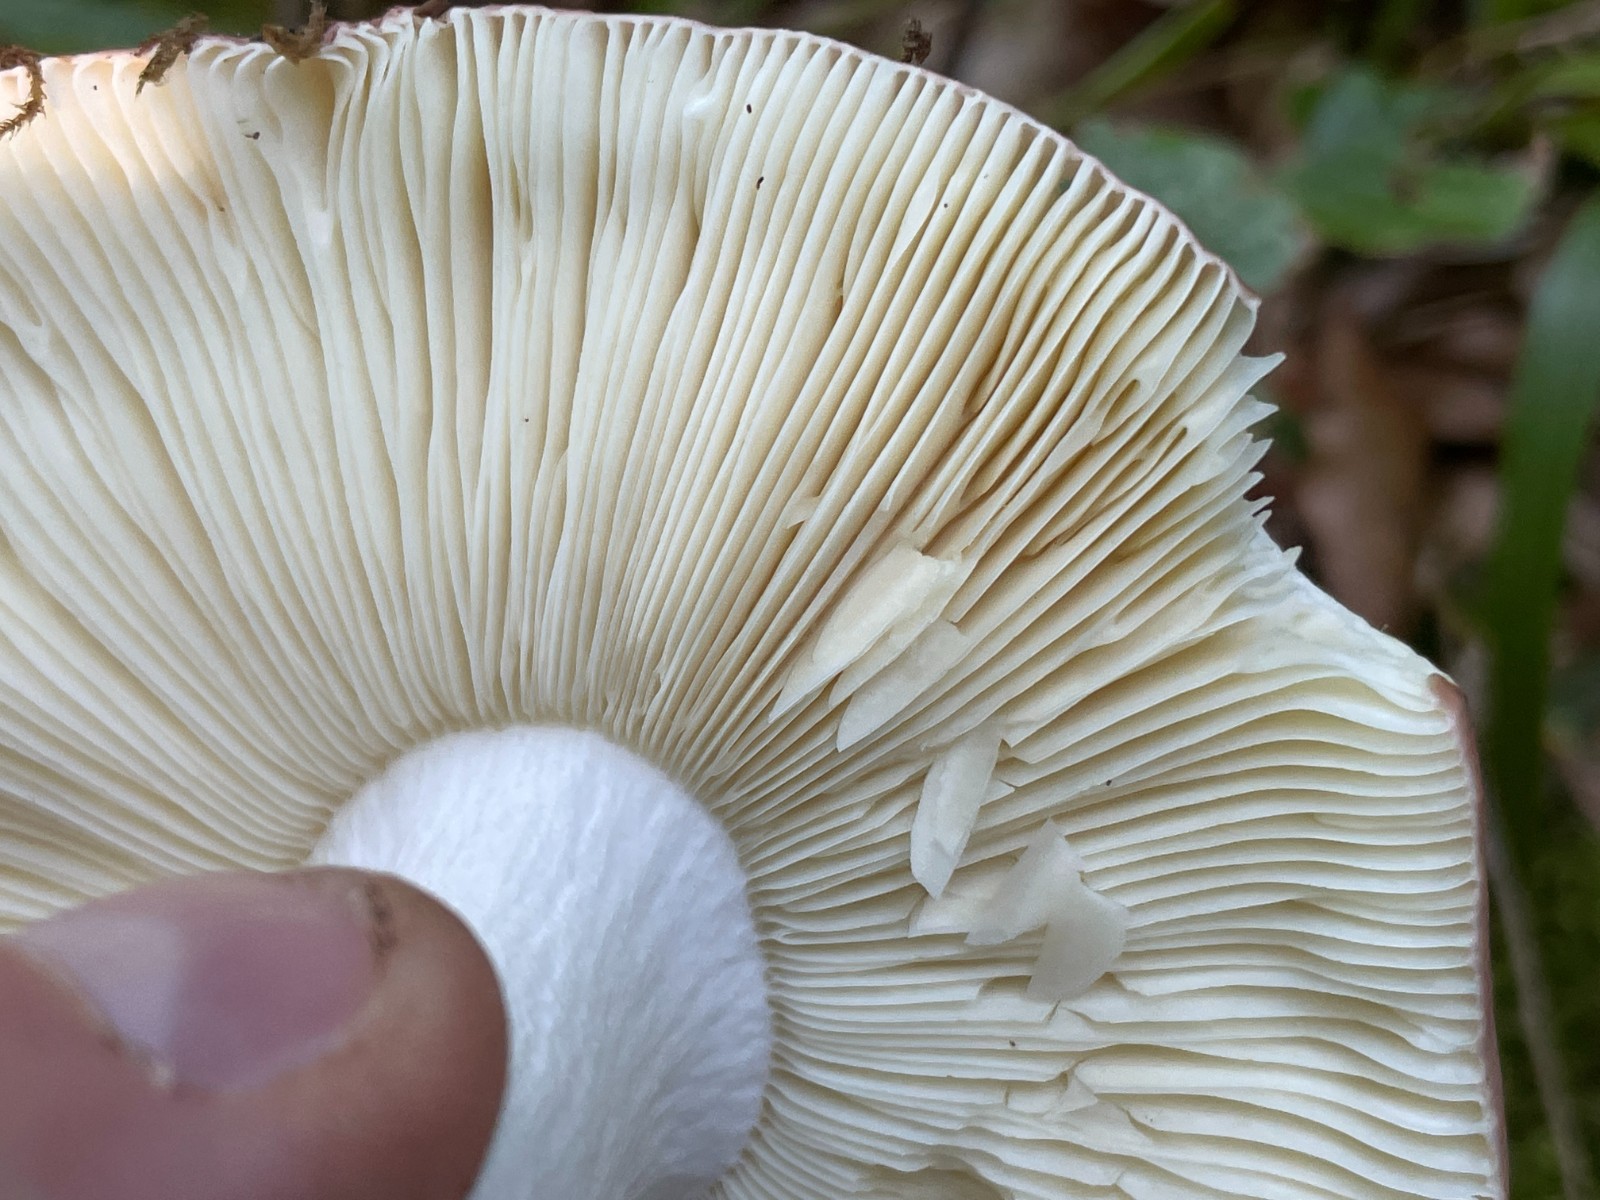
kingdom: Fungi
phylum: Basidiomycota
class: Agaricomycetes
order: Russulales
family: Russulaceae
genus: Russula
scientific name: Russula curtipes
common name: kortstokket skørhat
